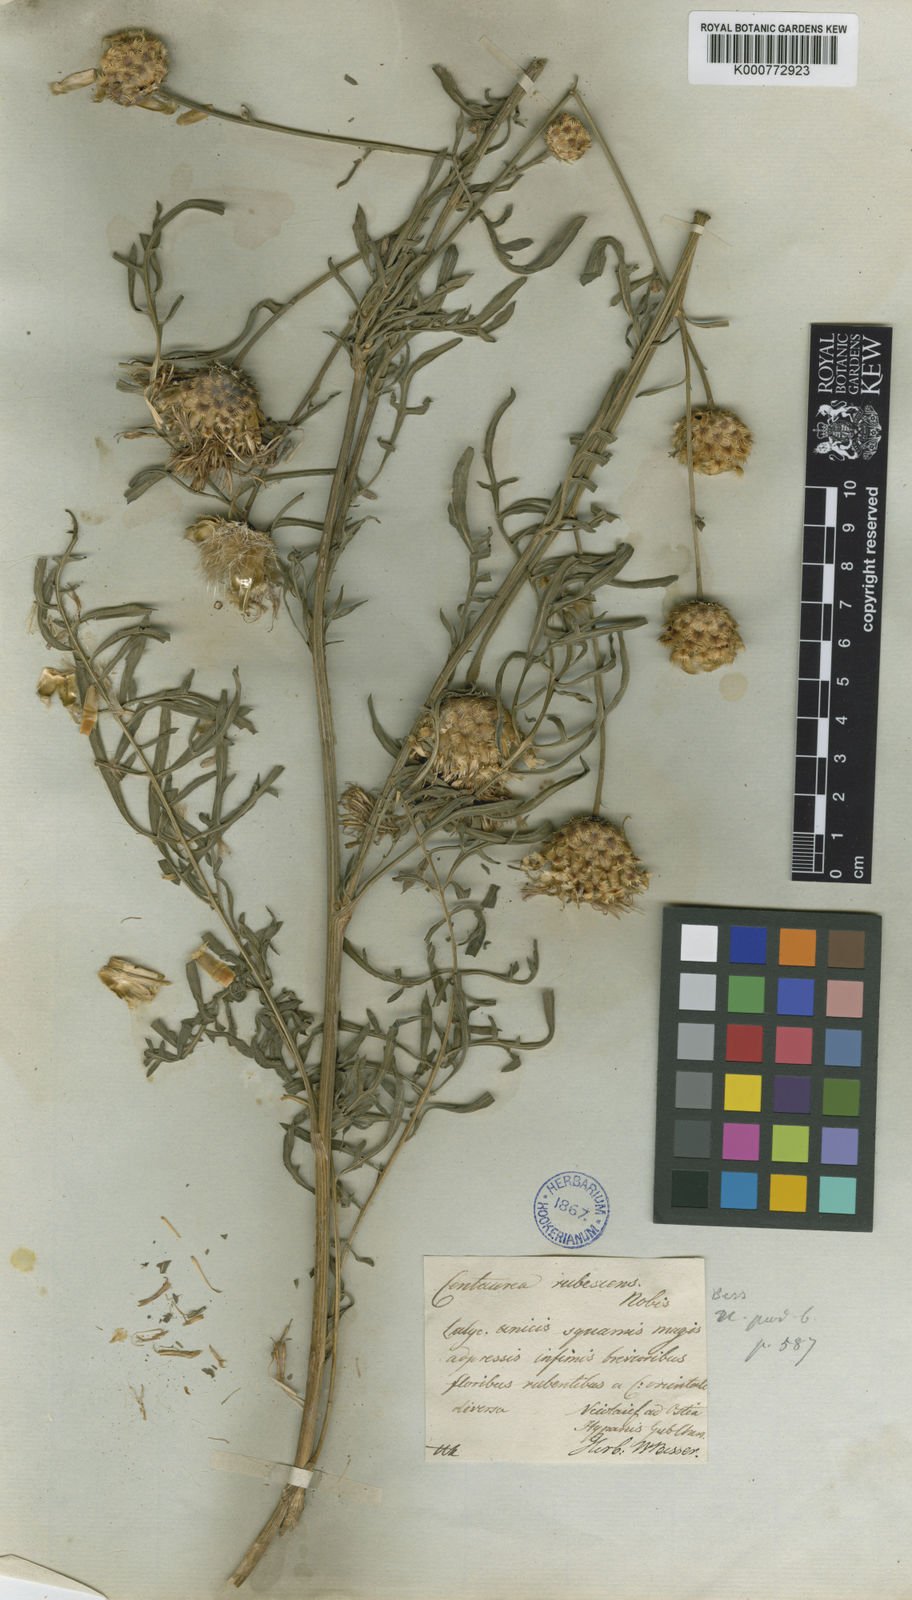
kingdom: Plantae
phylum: Tracheophyta
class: Magnoliopsida
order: Asterales
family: Asteraceae
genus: Centaurea
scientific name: Centaurea orientalis
